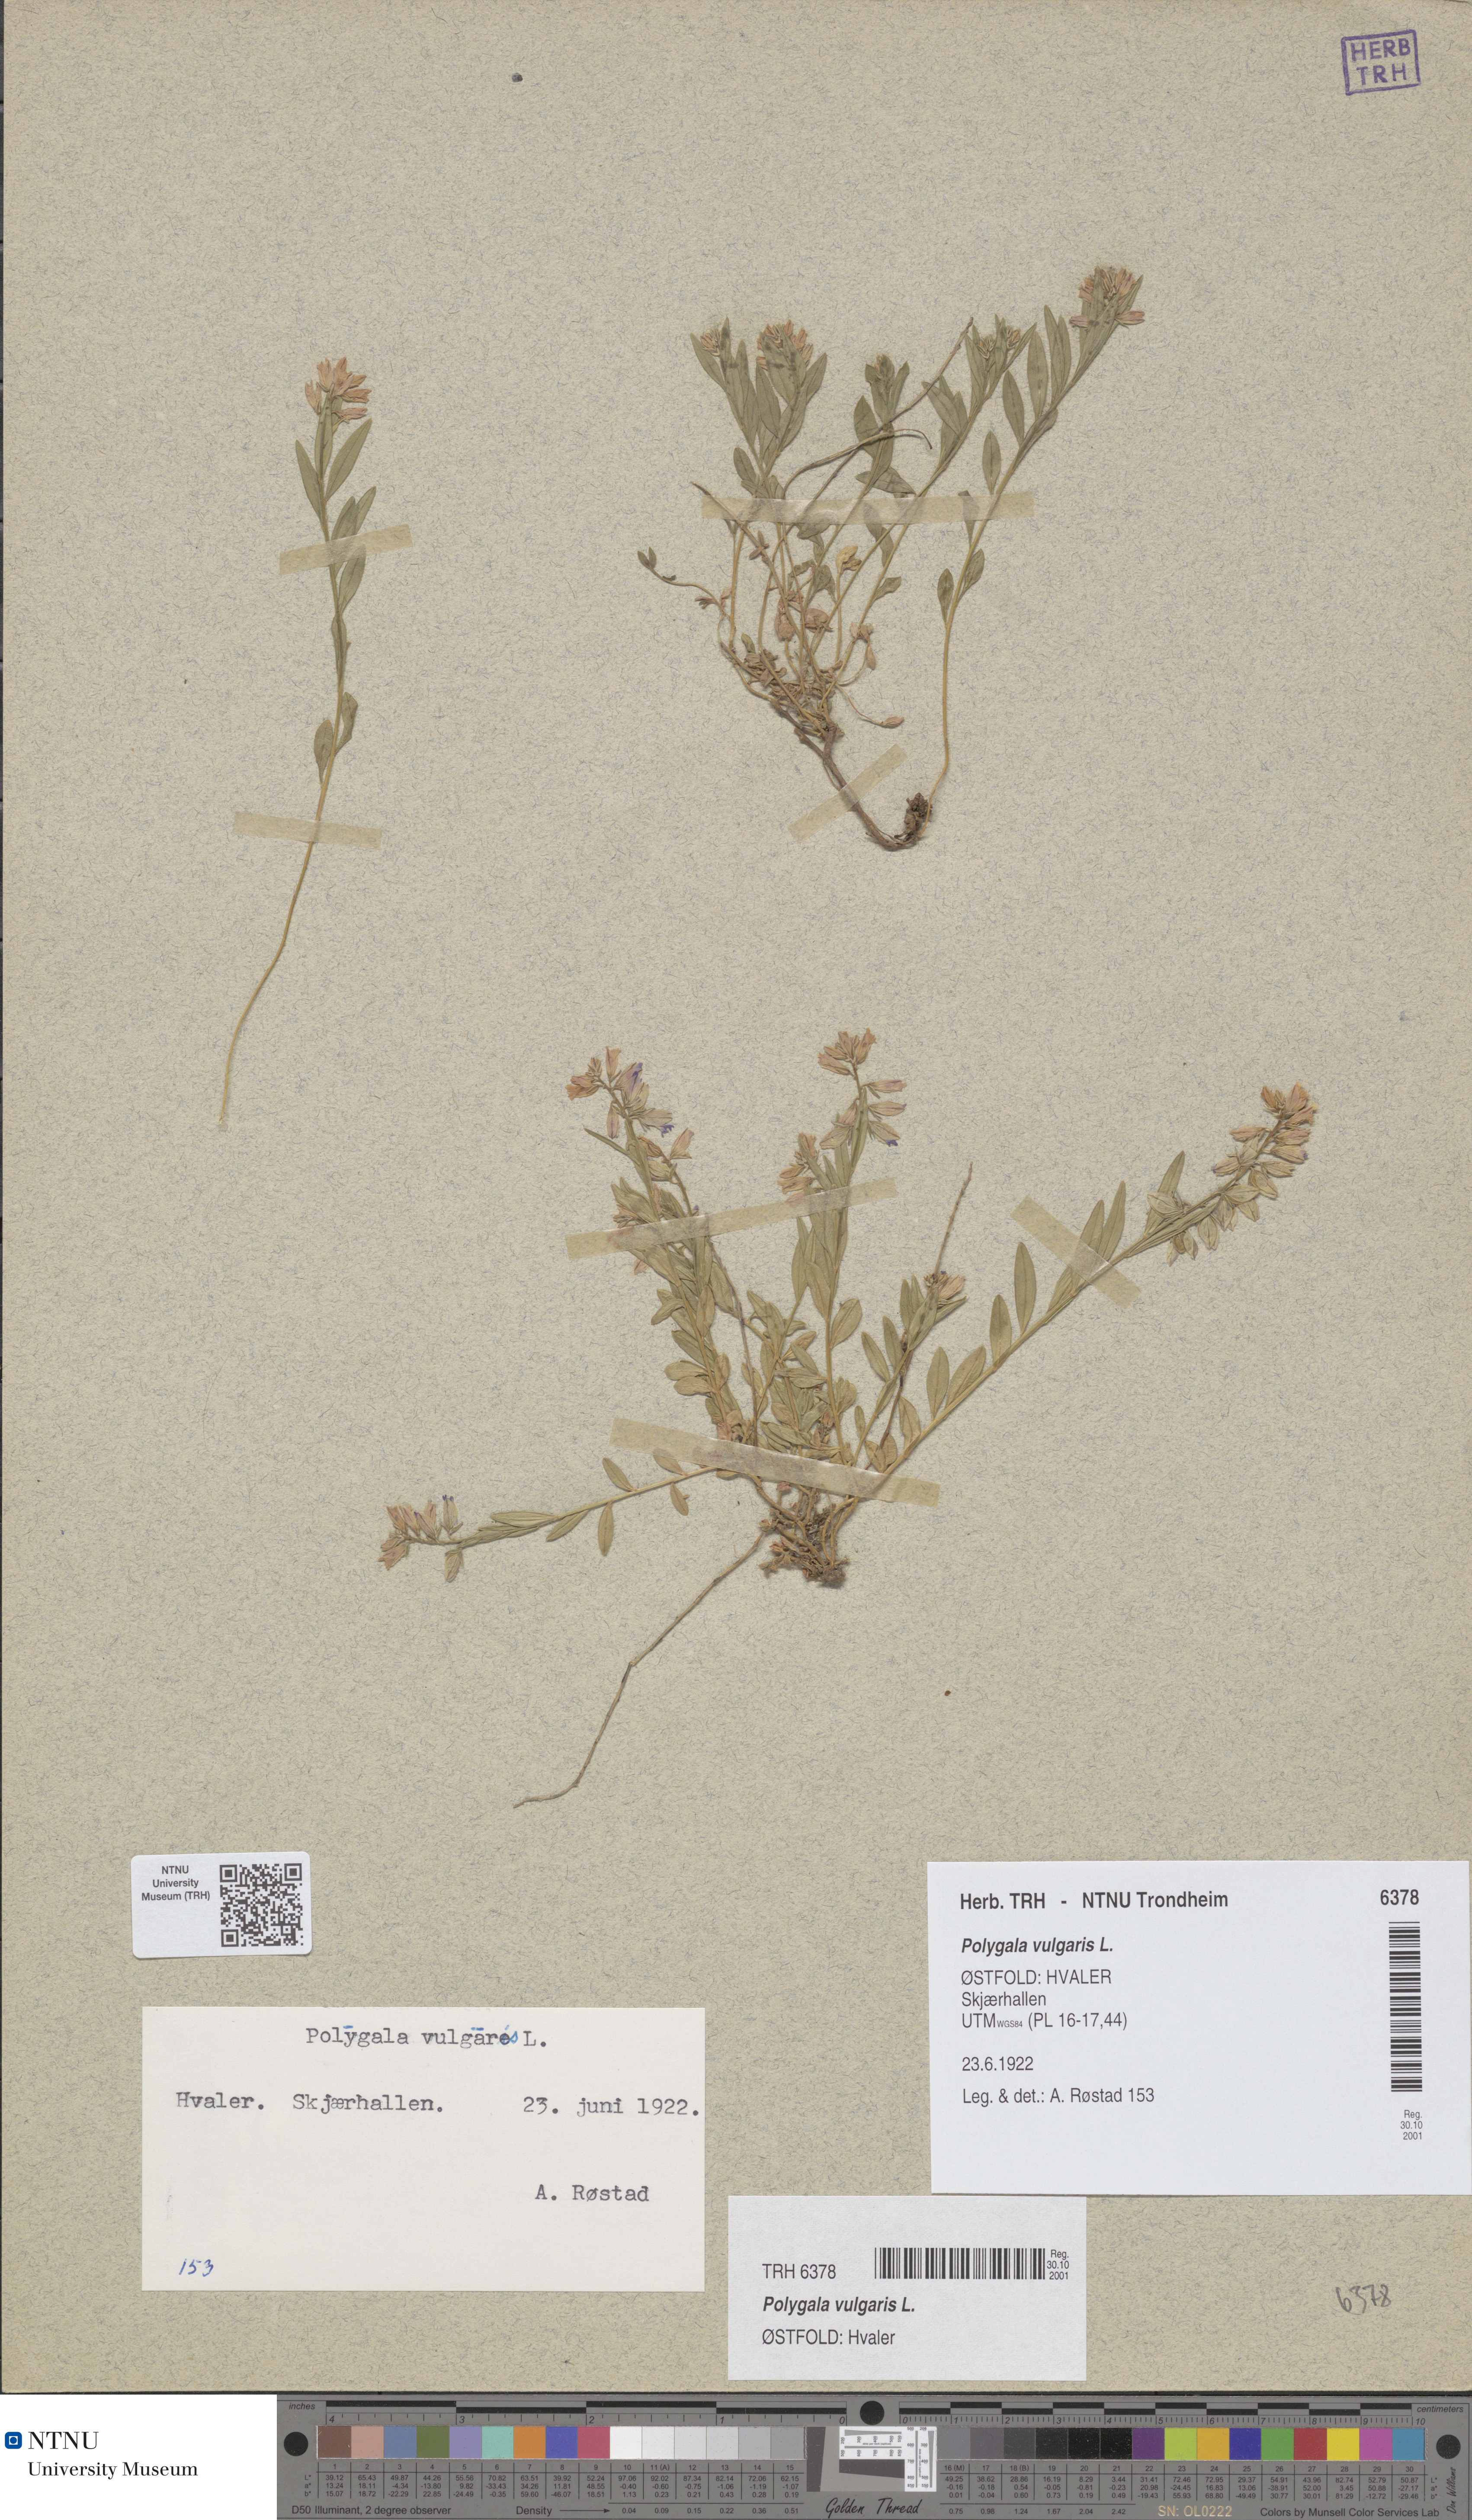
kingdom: Plantae
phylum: Tracheophyta
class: Magnoliopsida
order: Fabales
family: Polygalaceae
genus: Polygala
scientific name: Polygala vulgaris
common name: Common milkwort
